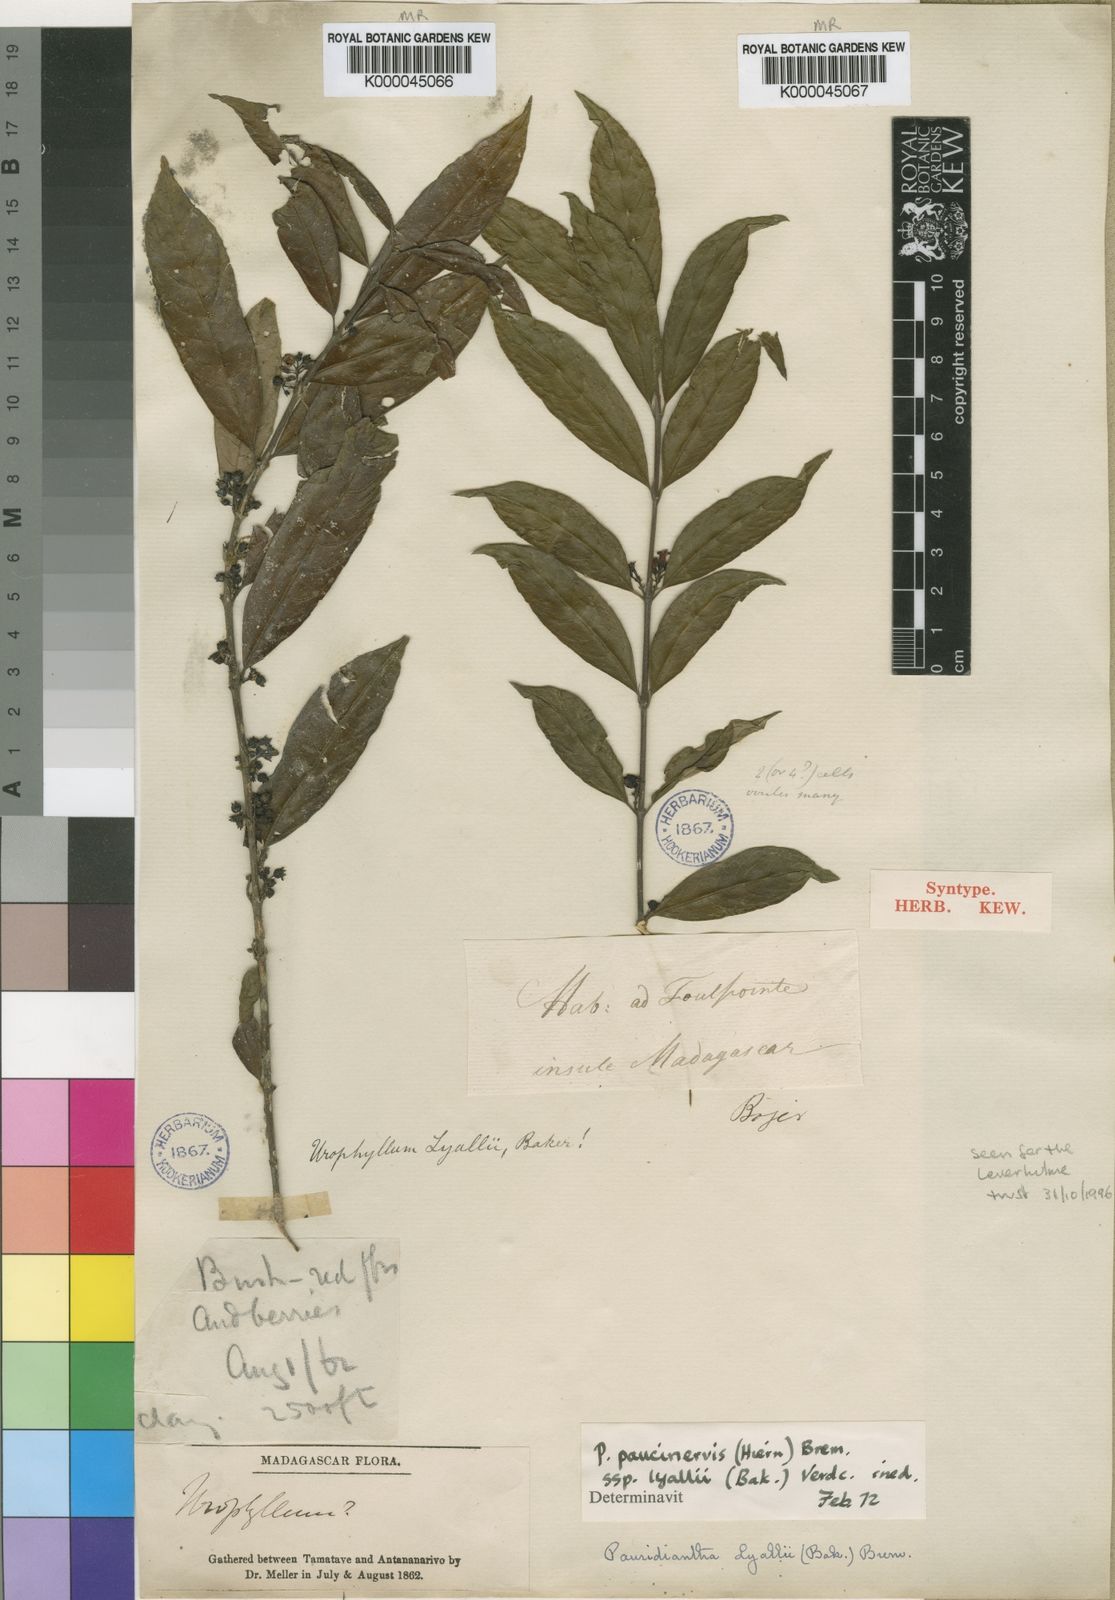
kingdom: Plantae
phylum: Tracheophyta
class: Magnoliopsida
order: Gentianales
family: Rubiaceae
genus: Pauridiantha
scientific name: Pauridiantha paucinervis
